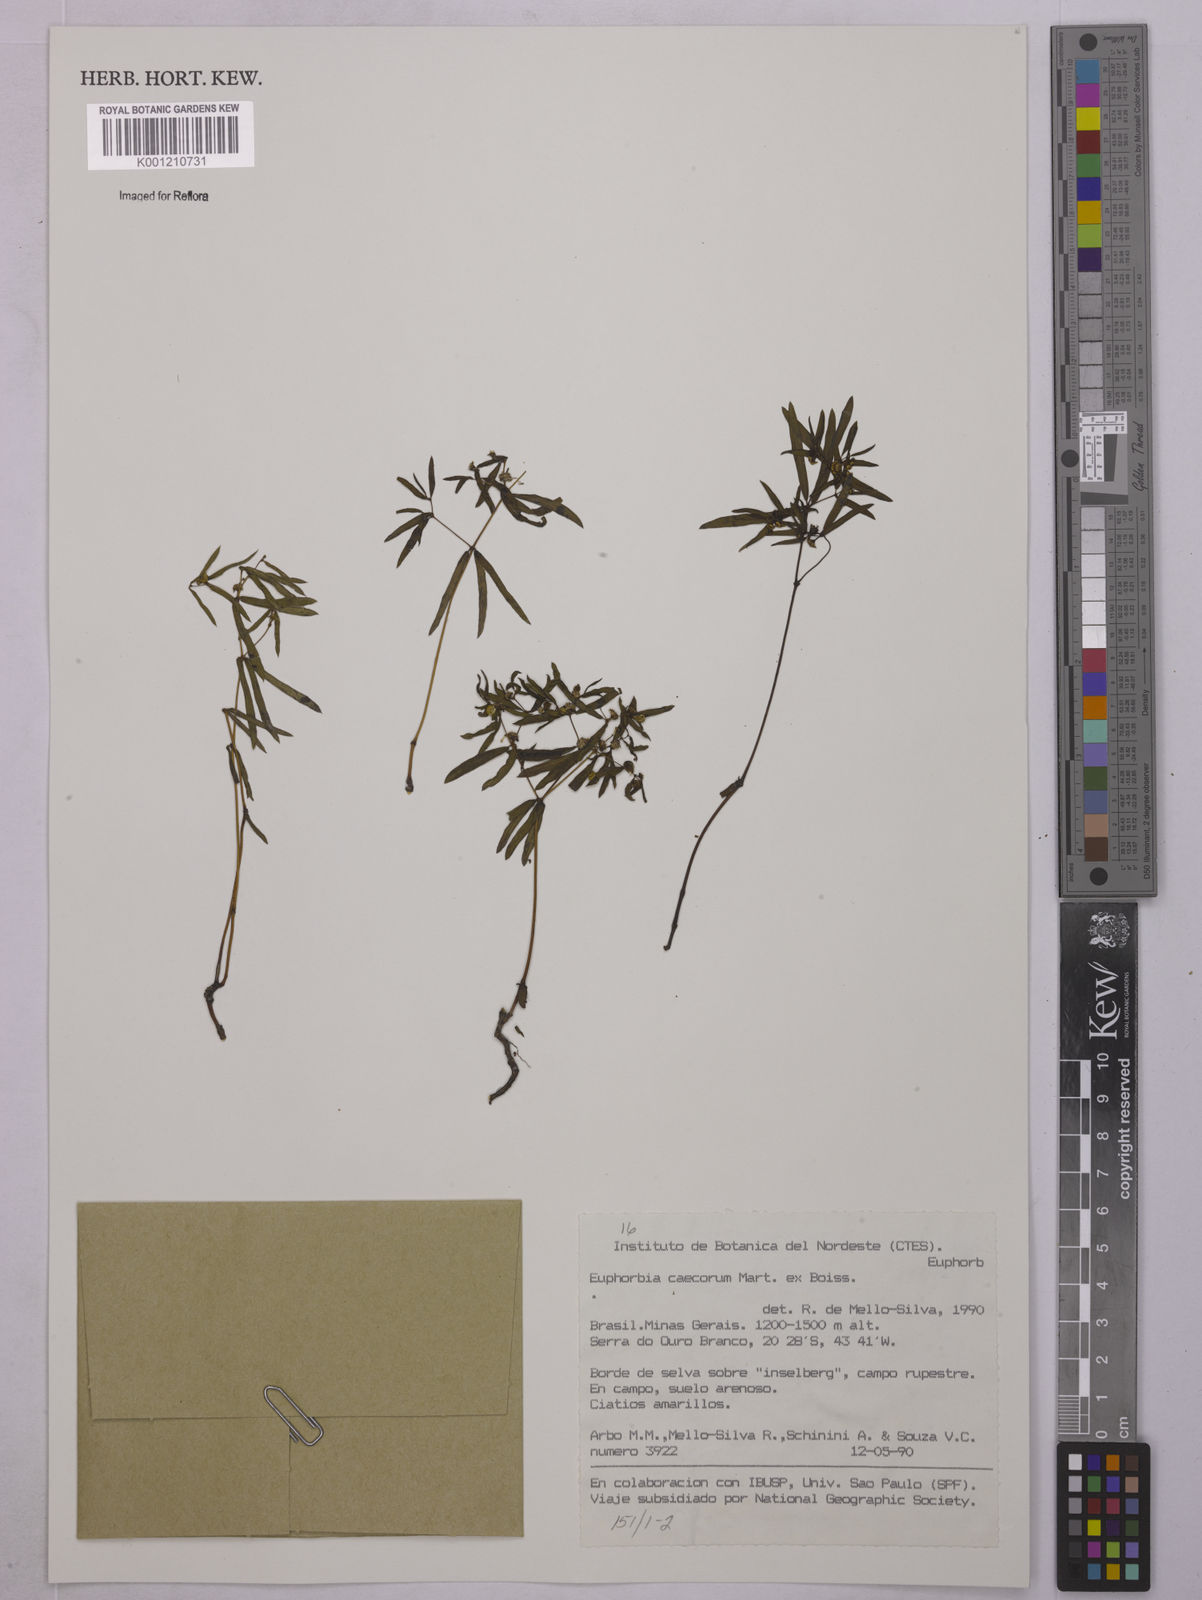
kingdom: Plantae
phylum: Tracheophyta
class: Magnoliopsida
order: Malpighiales
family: Euphorbiaceae
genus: Euphorbia
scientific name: Euphorbia potentilloides
